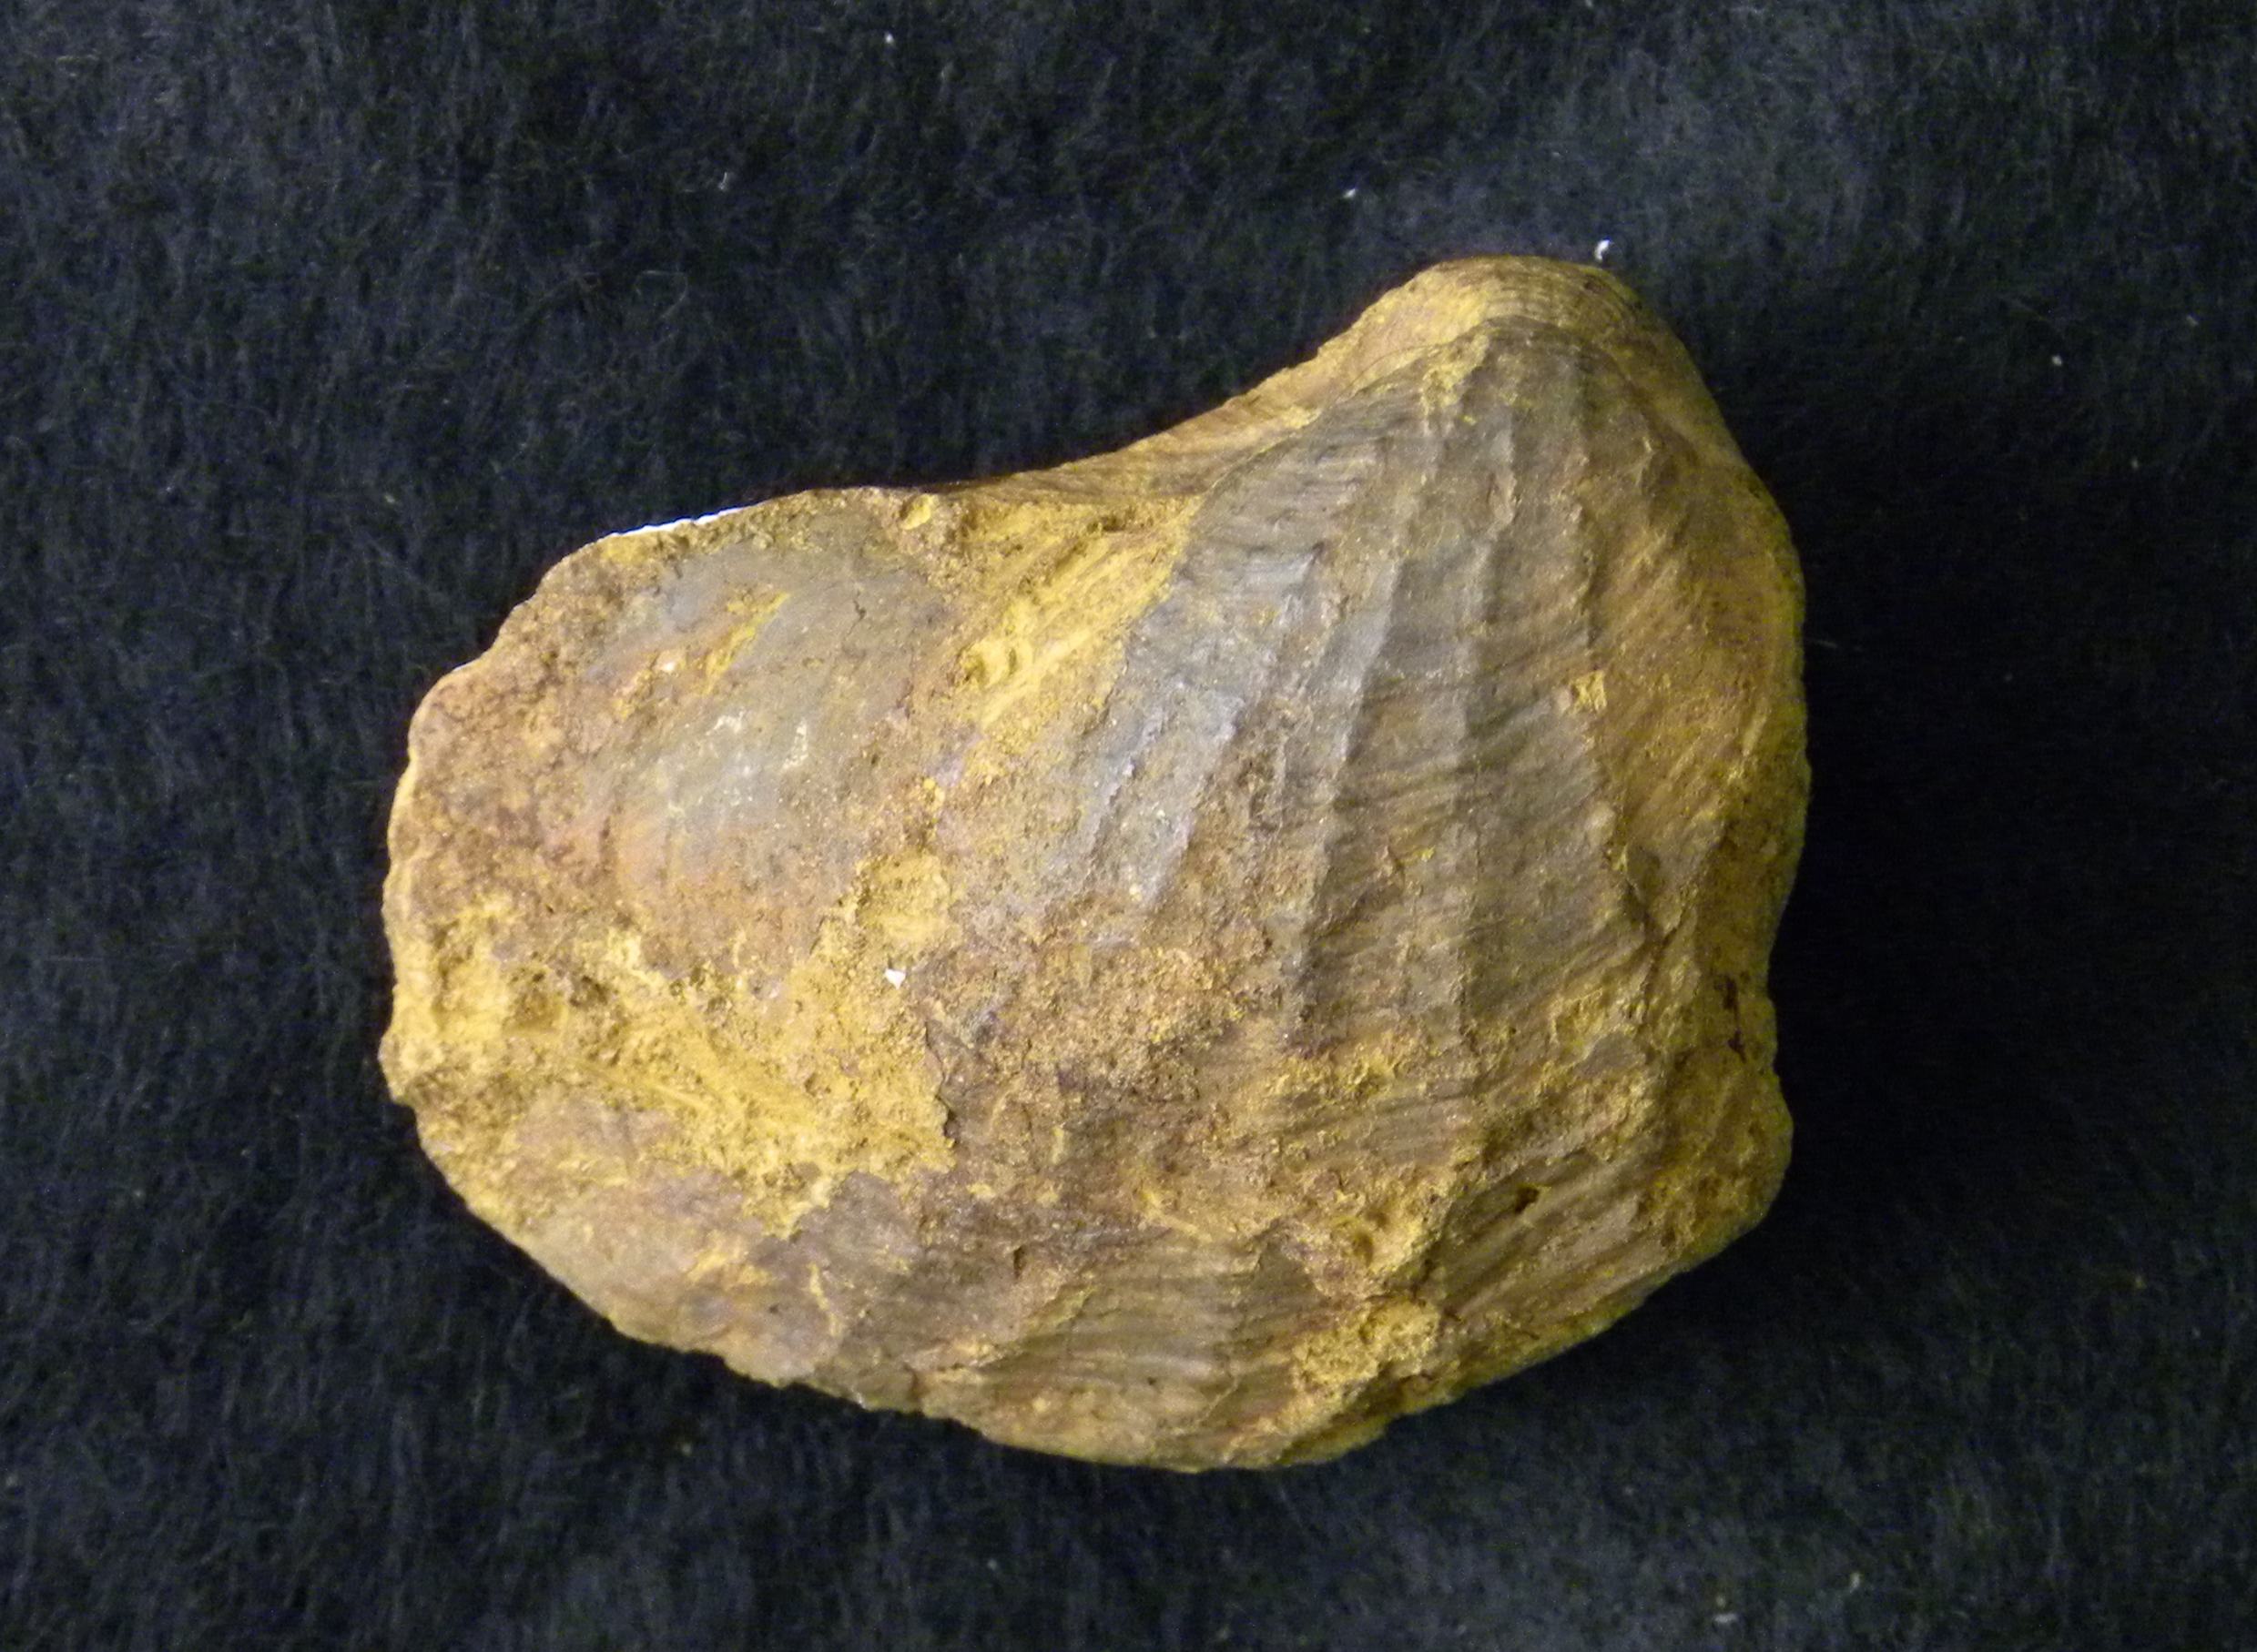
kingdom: Animalia
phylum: Mollusca
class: Bivalvia
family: Pholadomyidae
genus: Pholadomya
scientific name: Pholadomya
